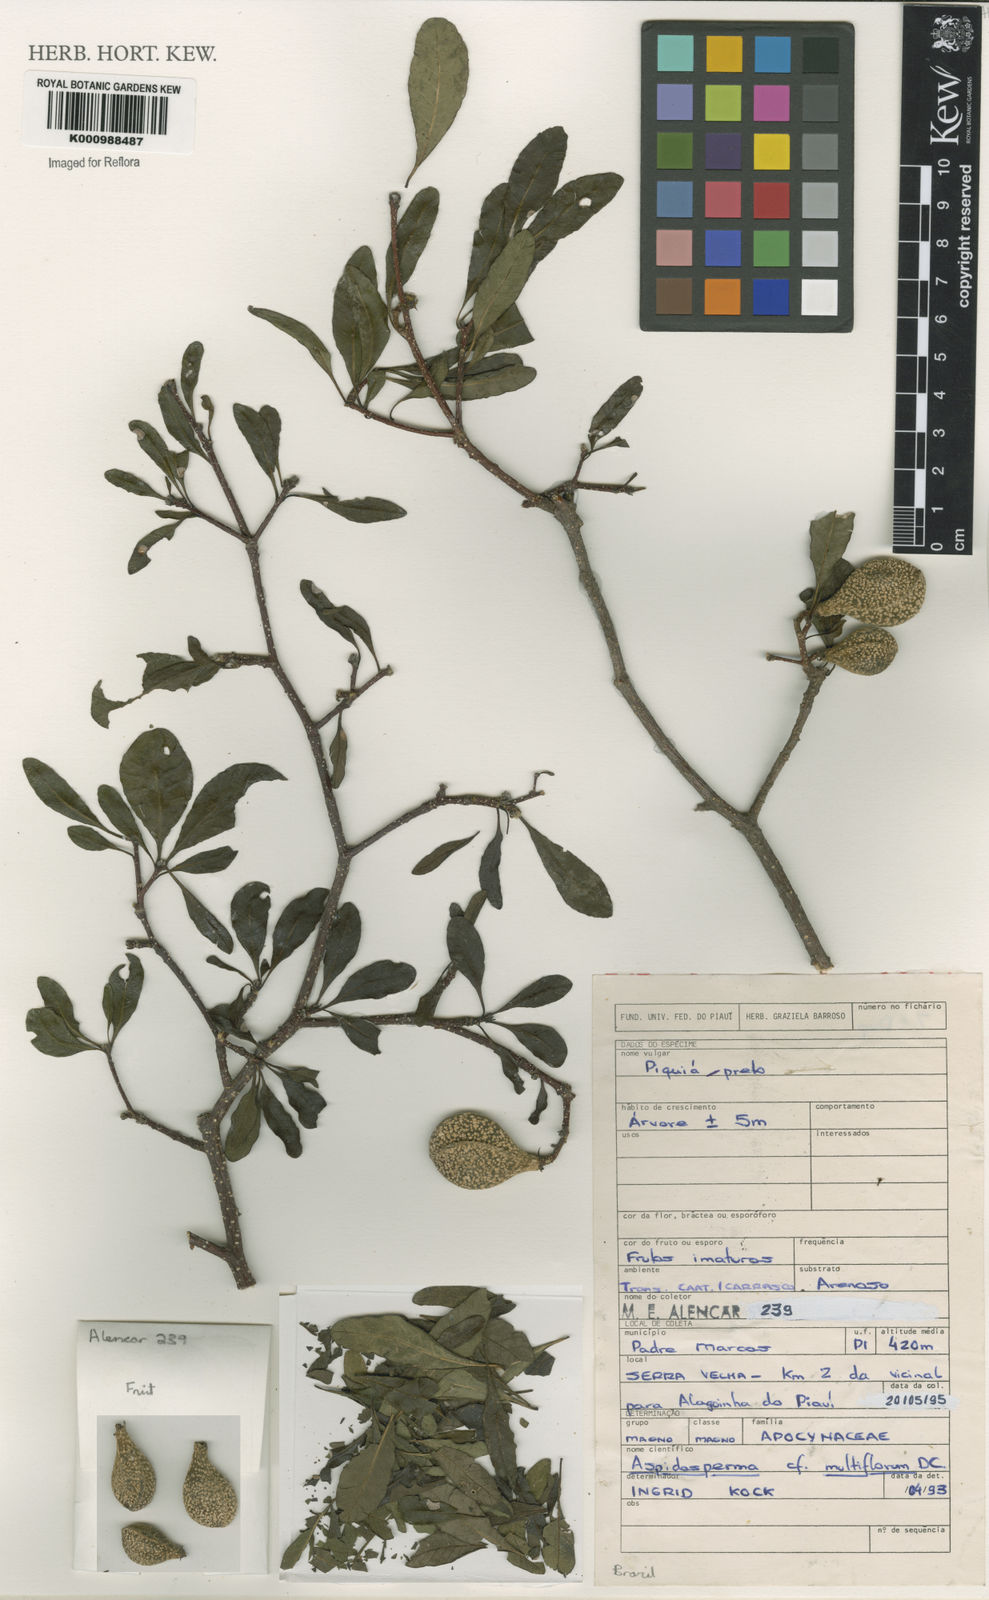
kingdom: Plantae
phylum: Tracheophyta
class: Magnoliopsida
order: Gentianales
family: Apocynaceae
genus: Aspidosperma
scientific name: Aspidosperma multiflorum
